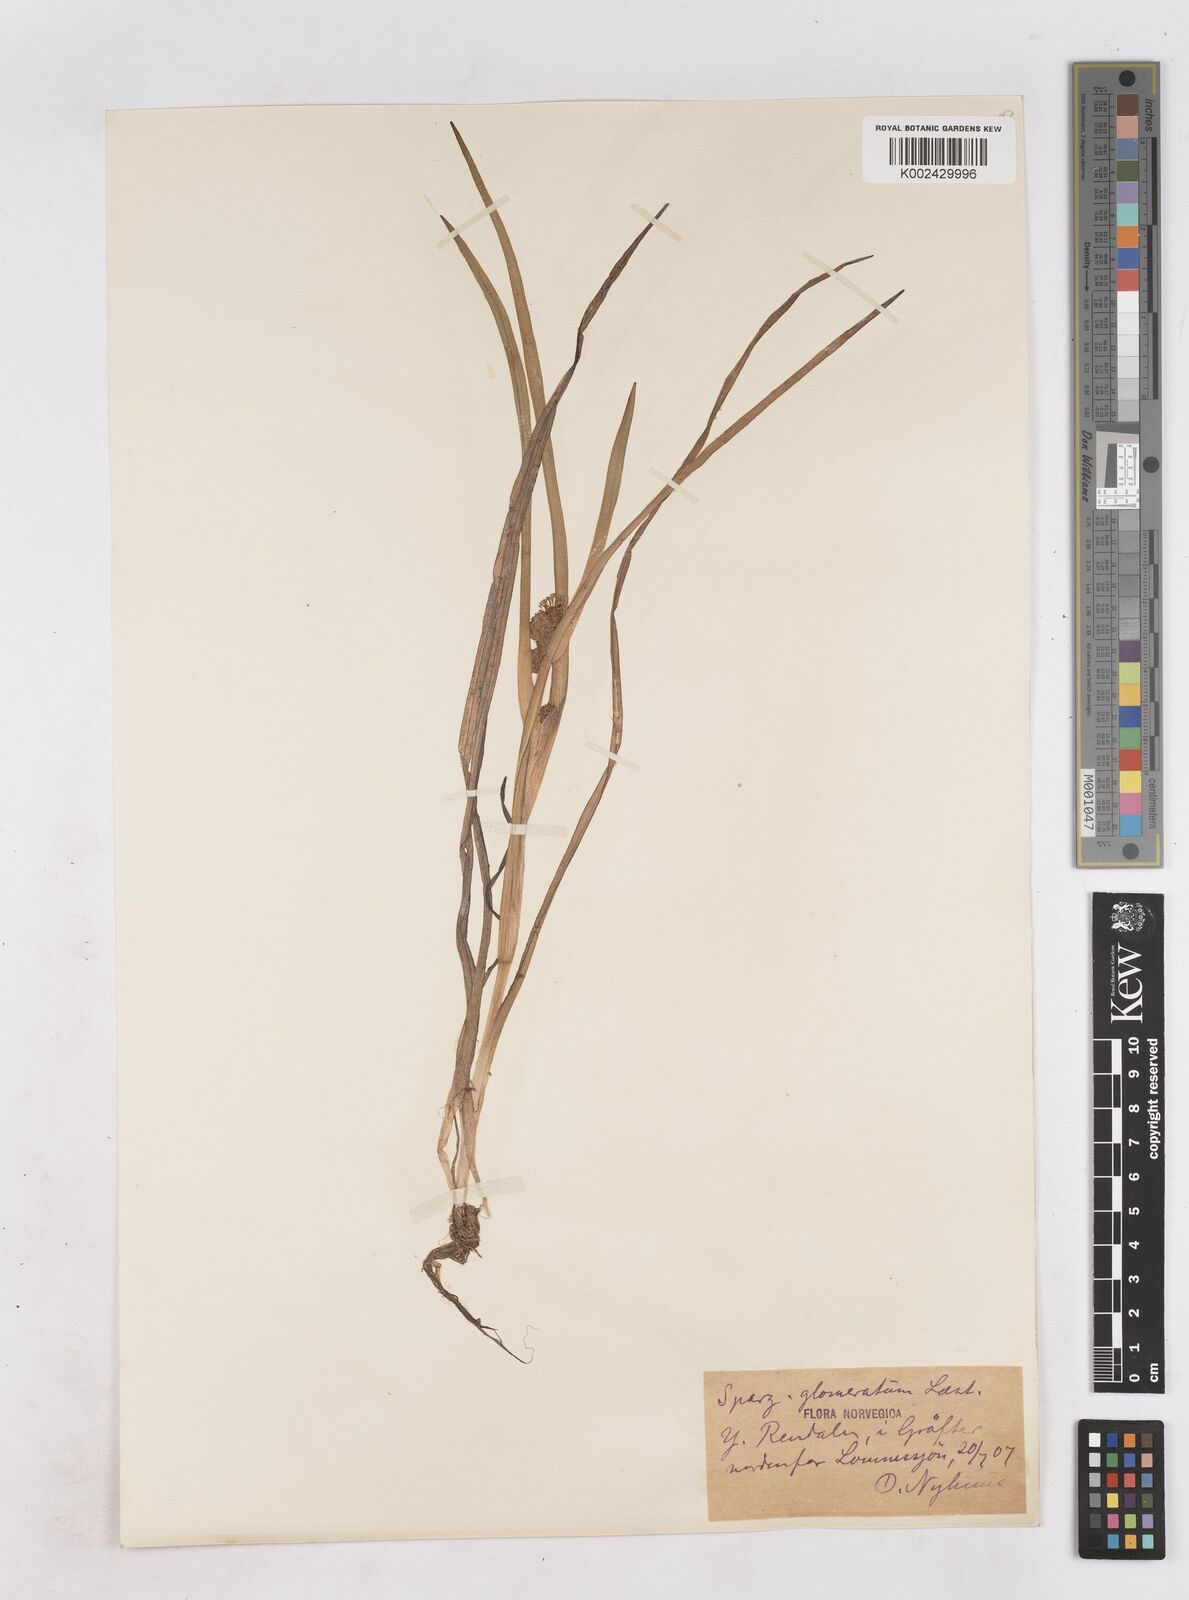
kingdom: Plantae
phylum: Tracheophyta
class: Liliopsida
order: Poales
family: Typhaceae
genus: Sparganium
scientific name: Sparganium angustifolium
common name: Floating bur-reed
